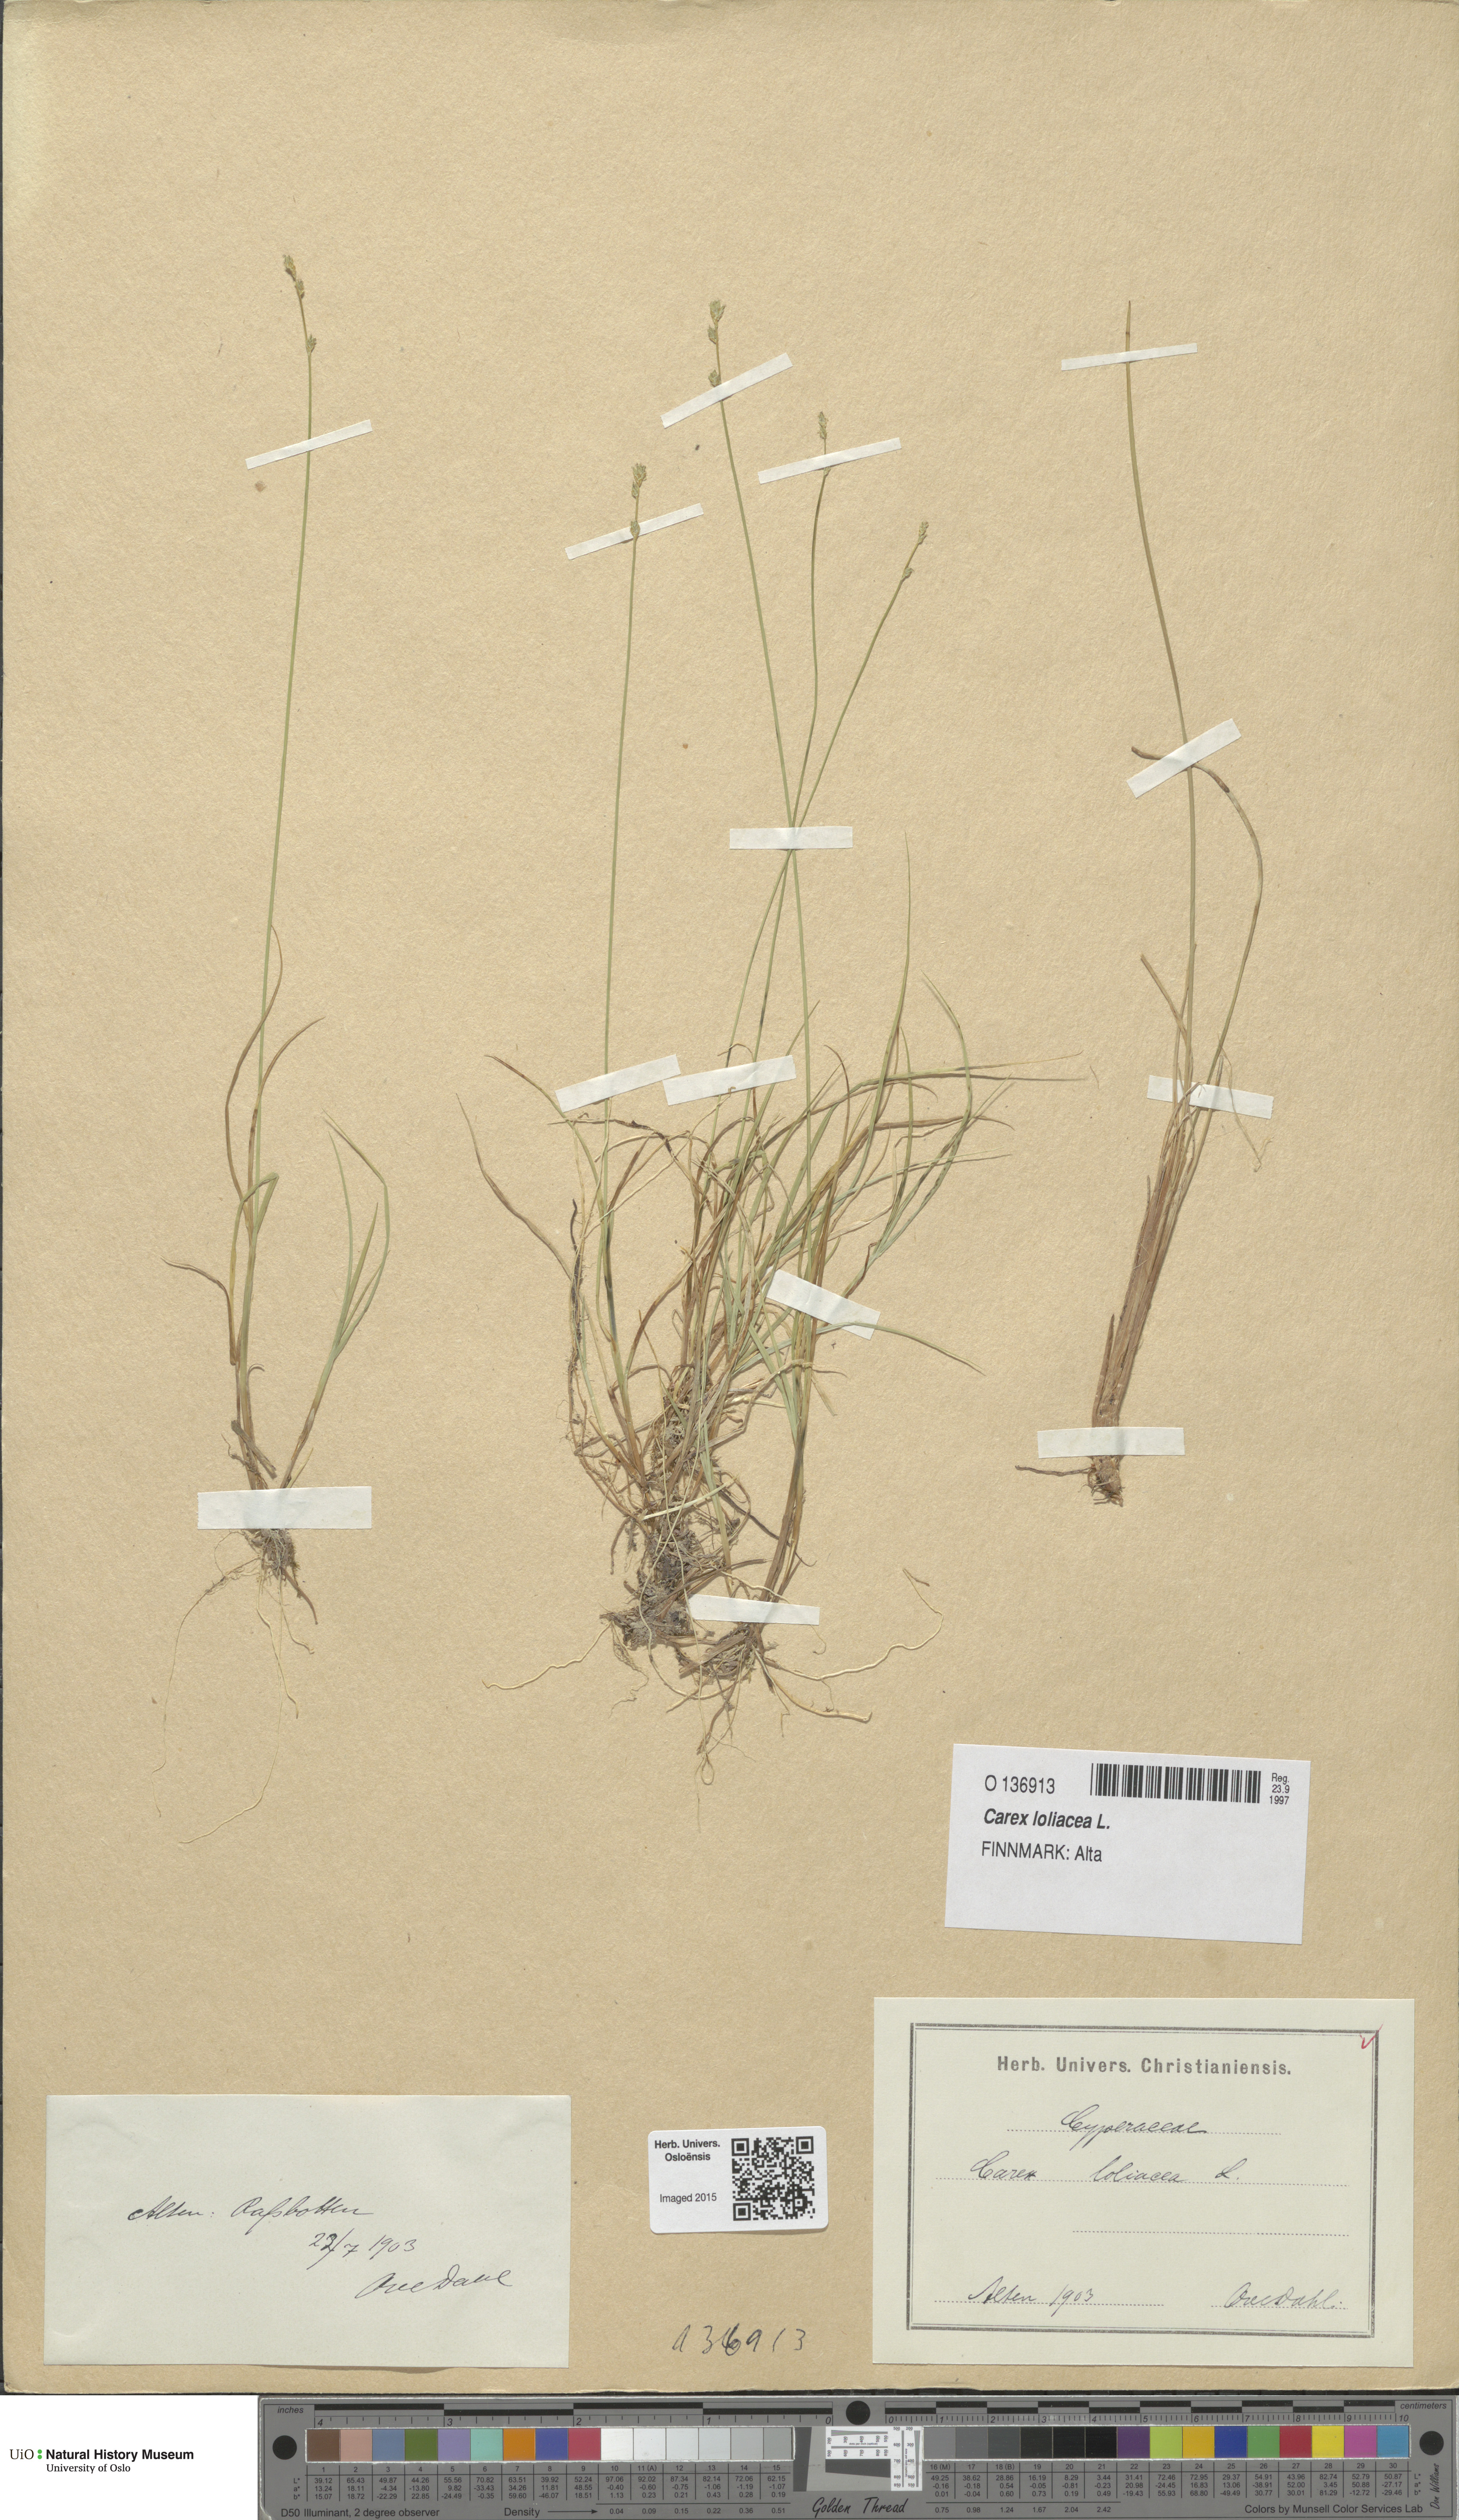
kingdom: Plantae
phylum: Tracheophyta
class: Liliopsida
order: Poales
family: Cyperaceae
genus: Carex
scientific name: Carex loliacea
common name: Ryegrass sedge
